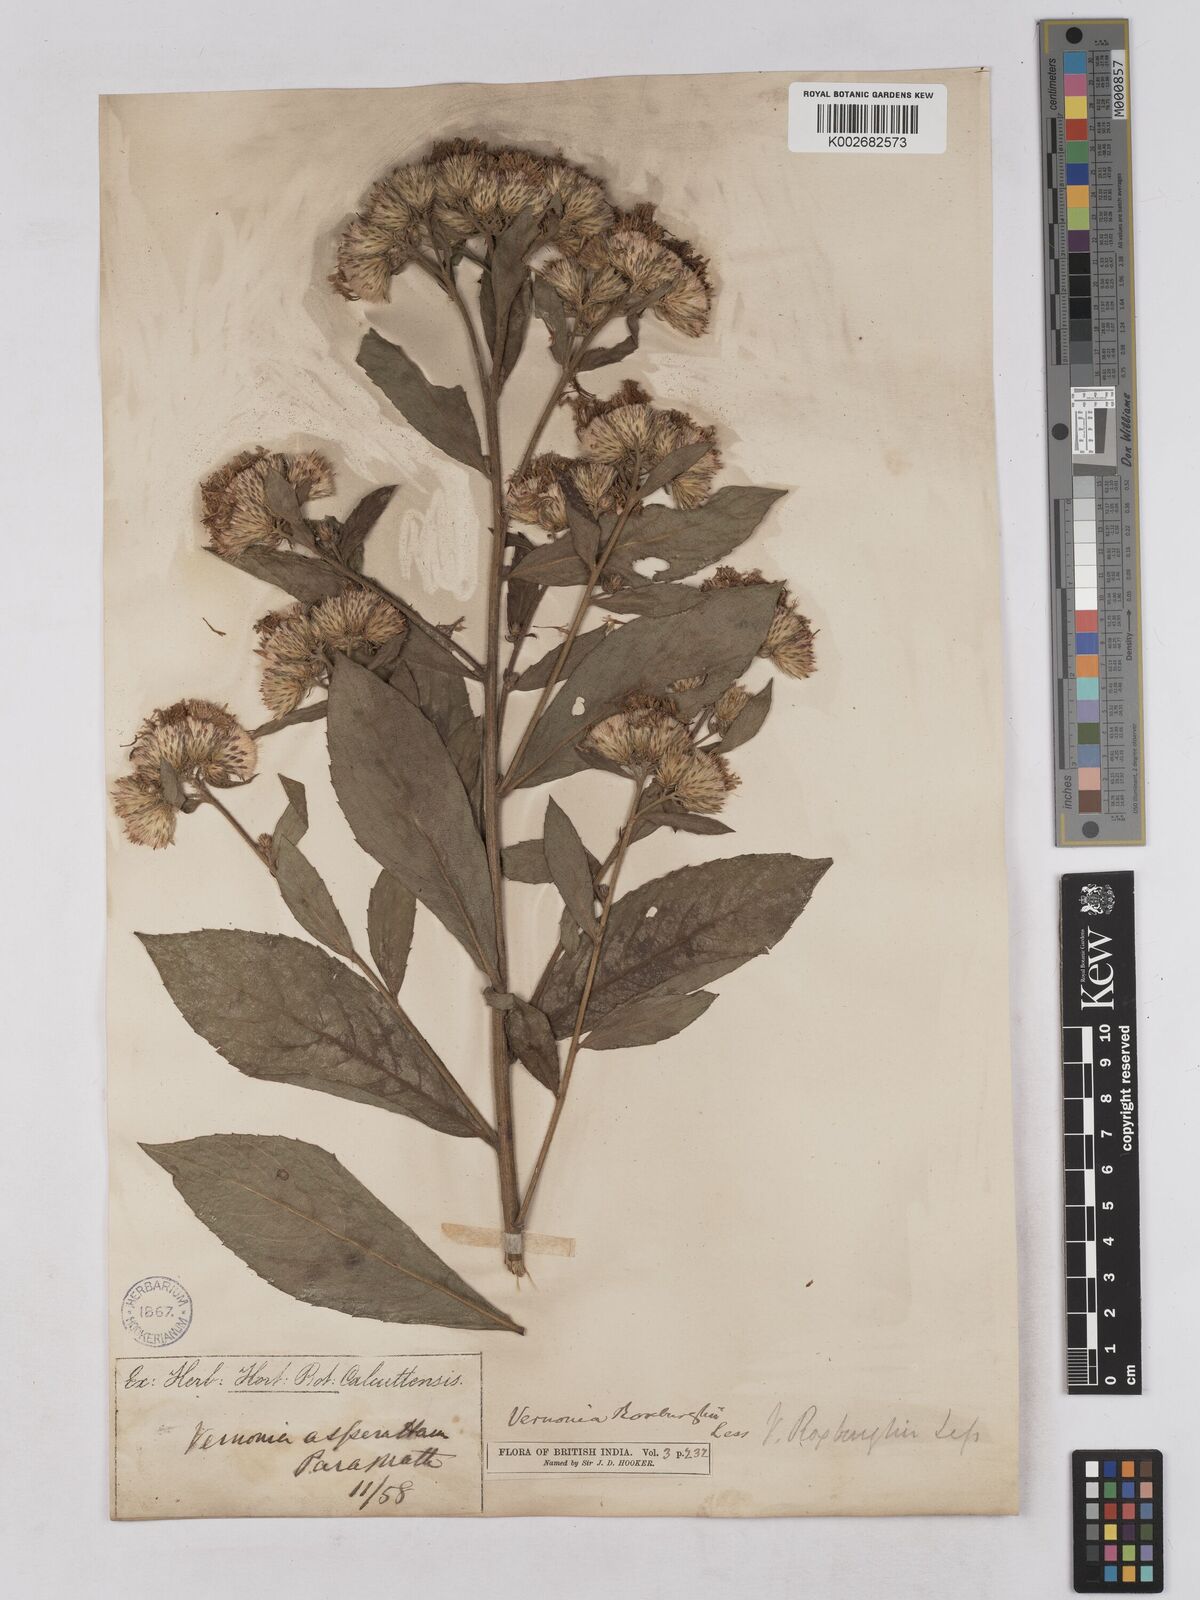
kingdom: Plantae
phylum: Tracheophyta
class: Magnoliopsida
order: Asterales
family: Asteraceae
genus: Acilepis
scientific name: Acilepis aspera
